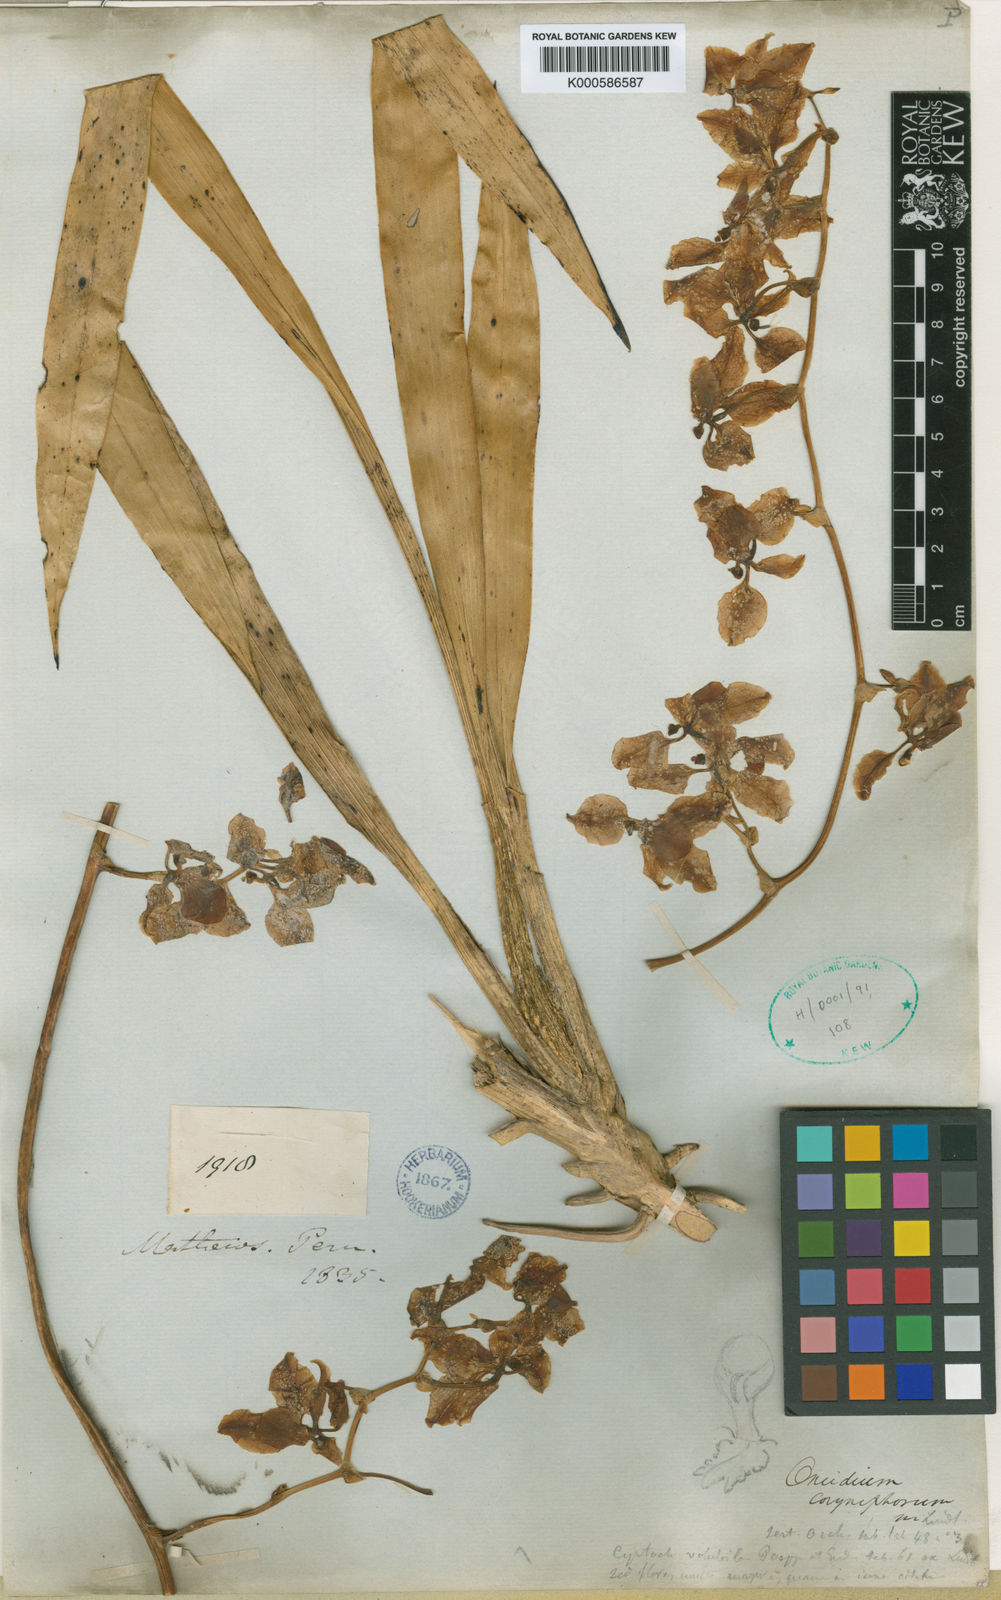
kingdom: Plantae
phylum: Tracheophyta
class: Liliopsida
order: Asparagales
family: Orchidaceae
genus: Cyrtochilum
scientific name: Cyrtochilum volubile
